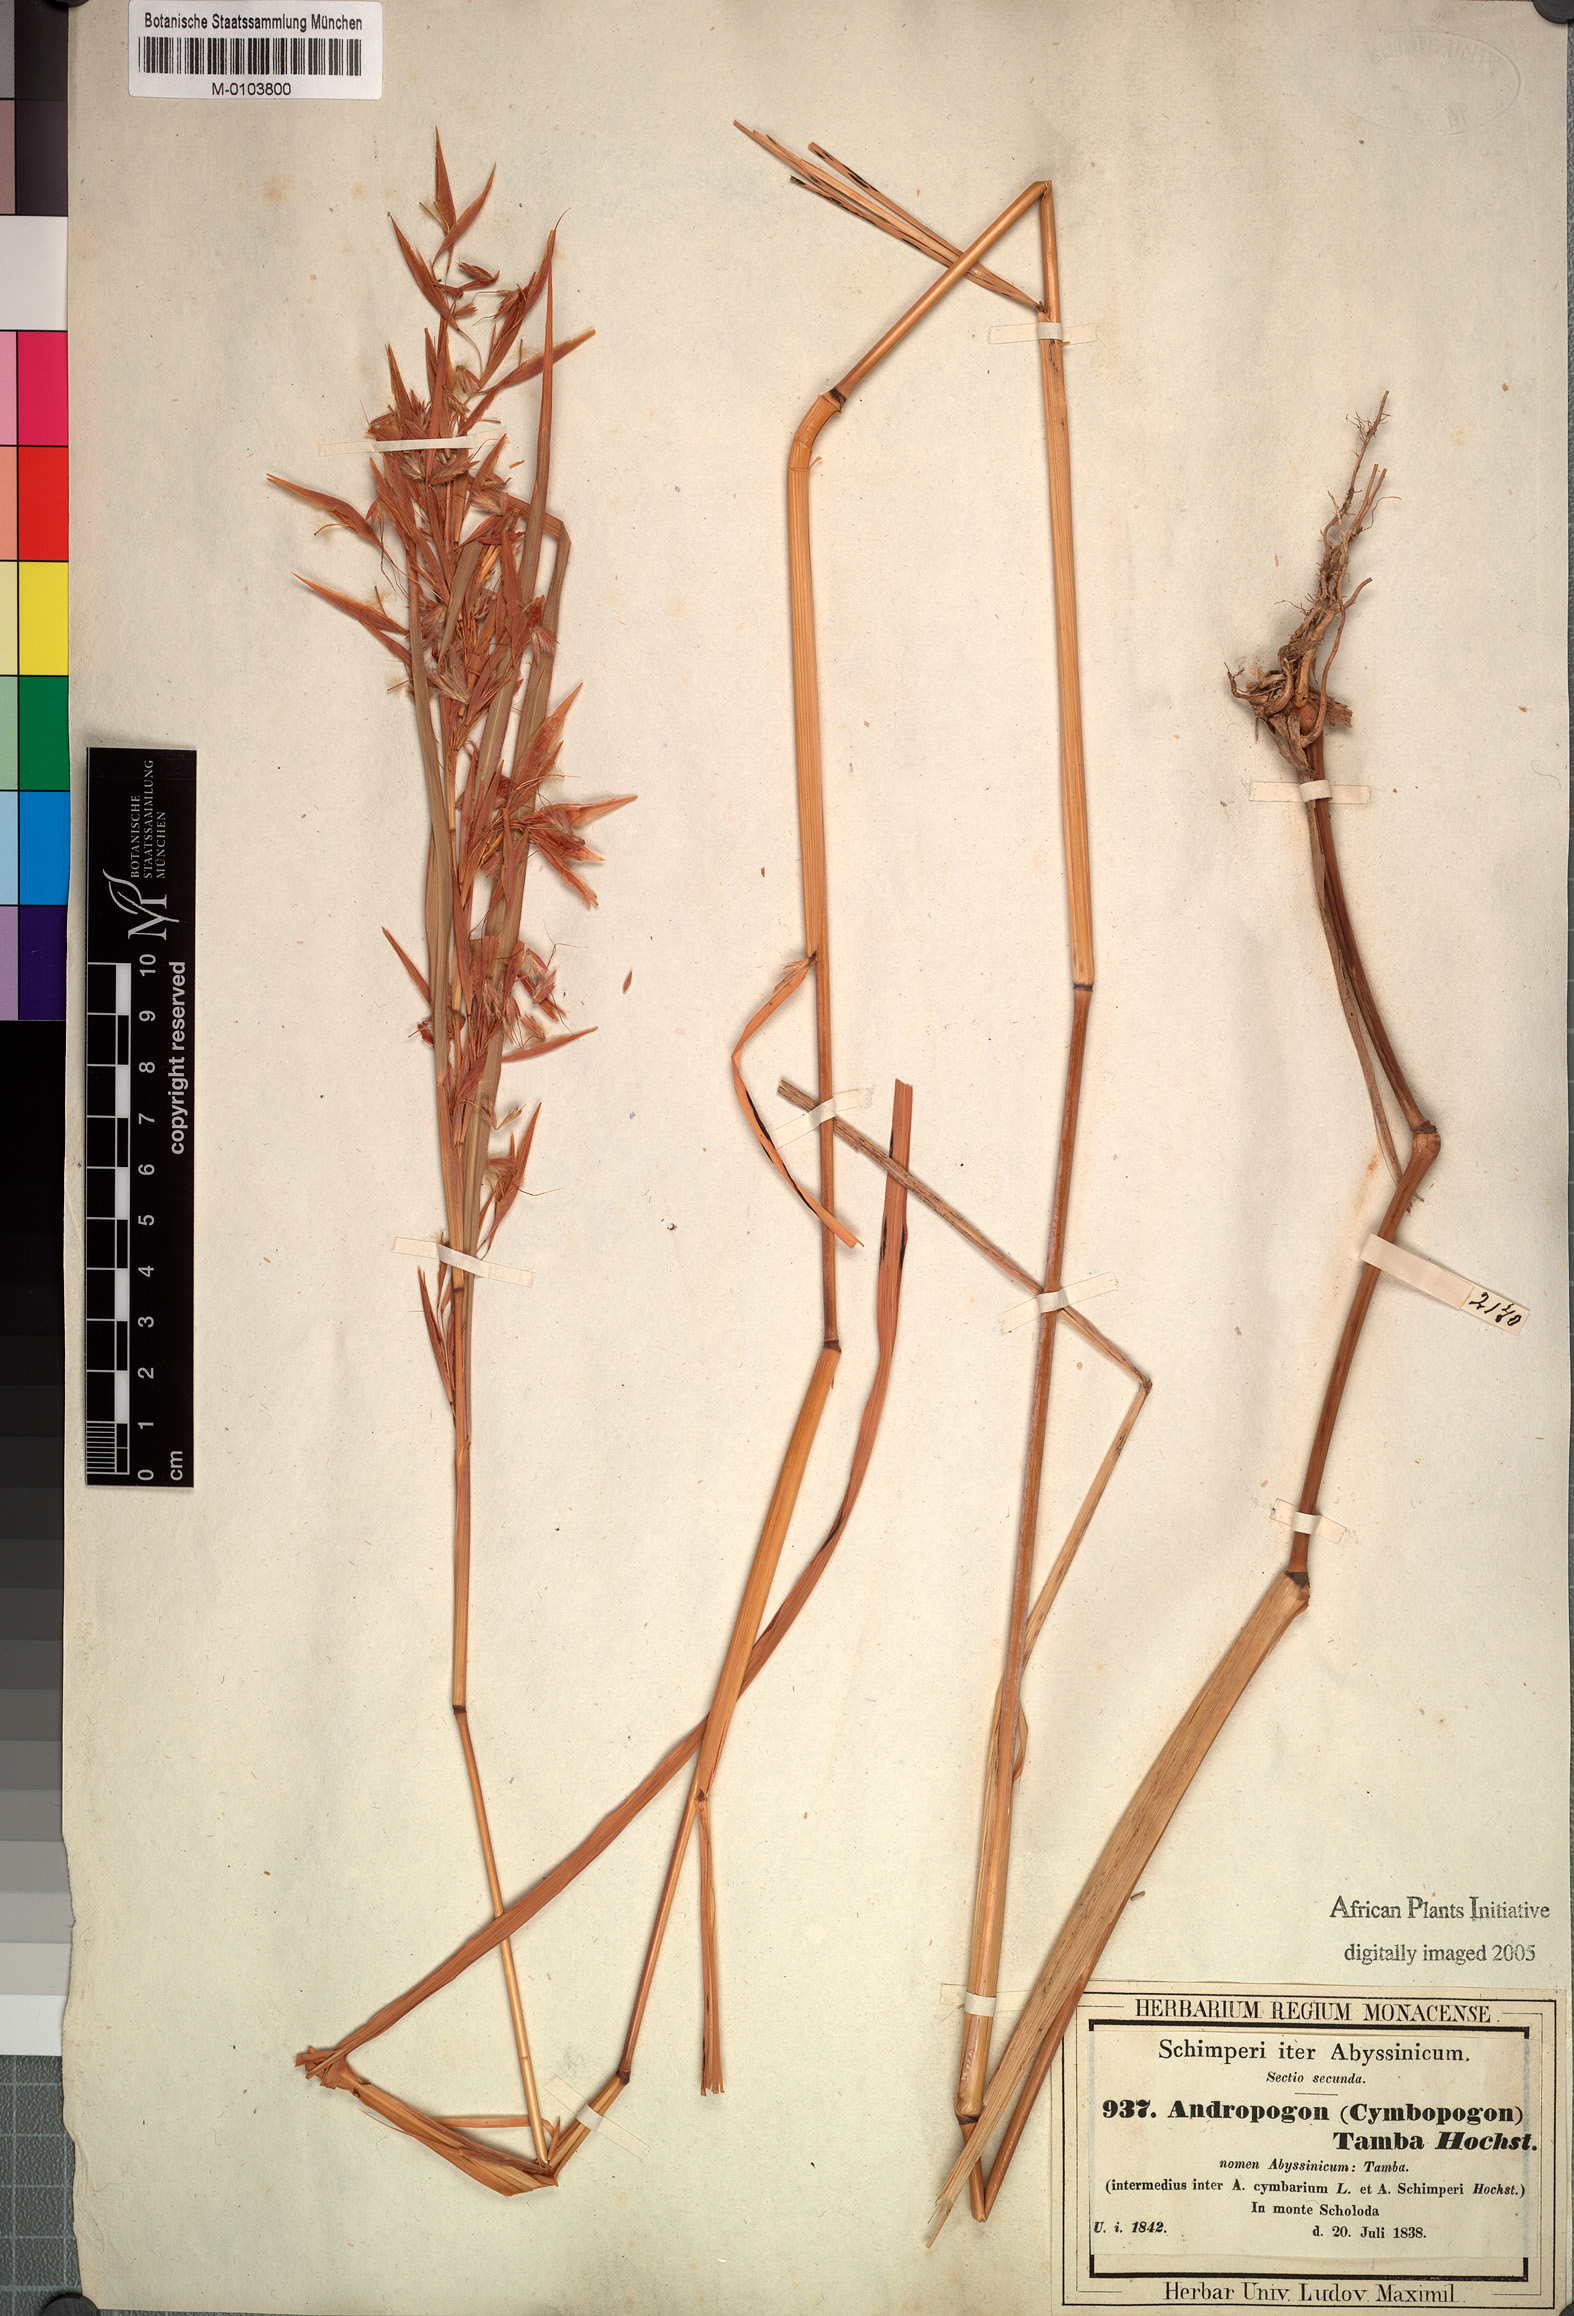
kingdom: Plantae
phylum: Tracheophyta
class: Liliopsida
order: Poales
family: Poaceae
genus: Hyparrhenia
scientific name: Hyparrhenia tamba
